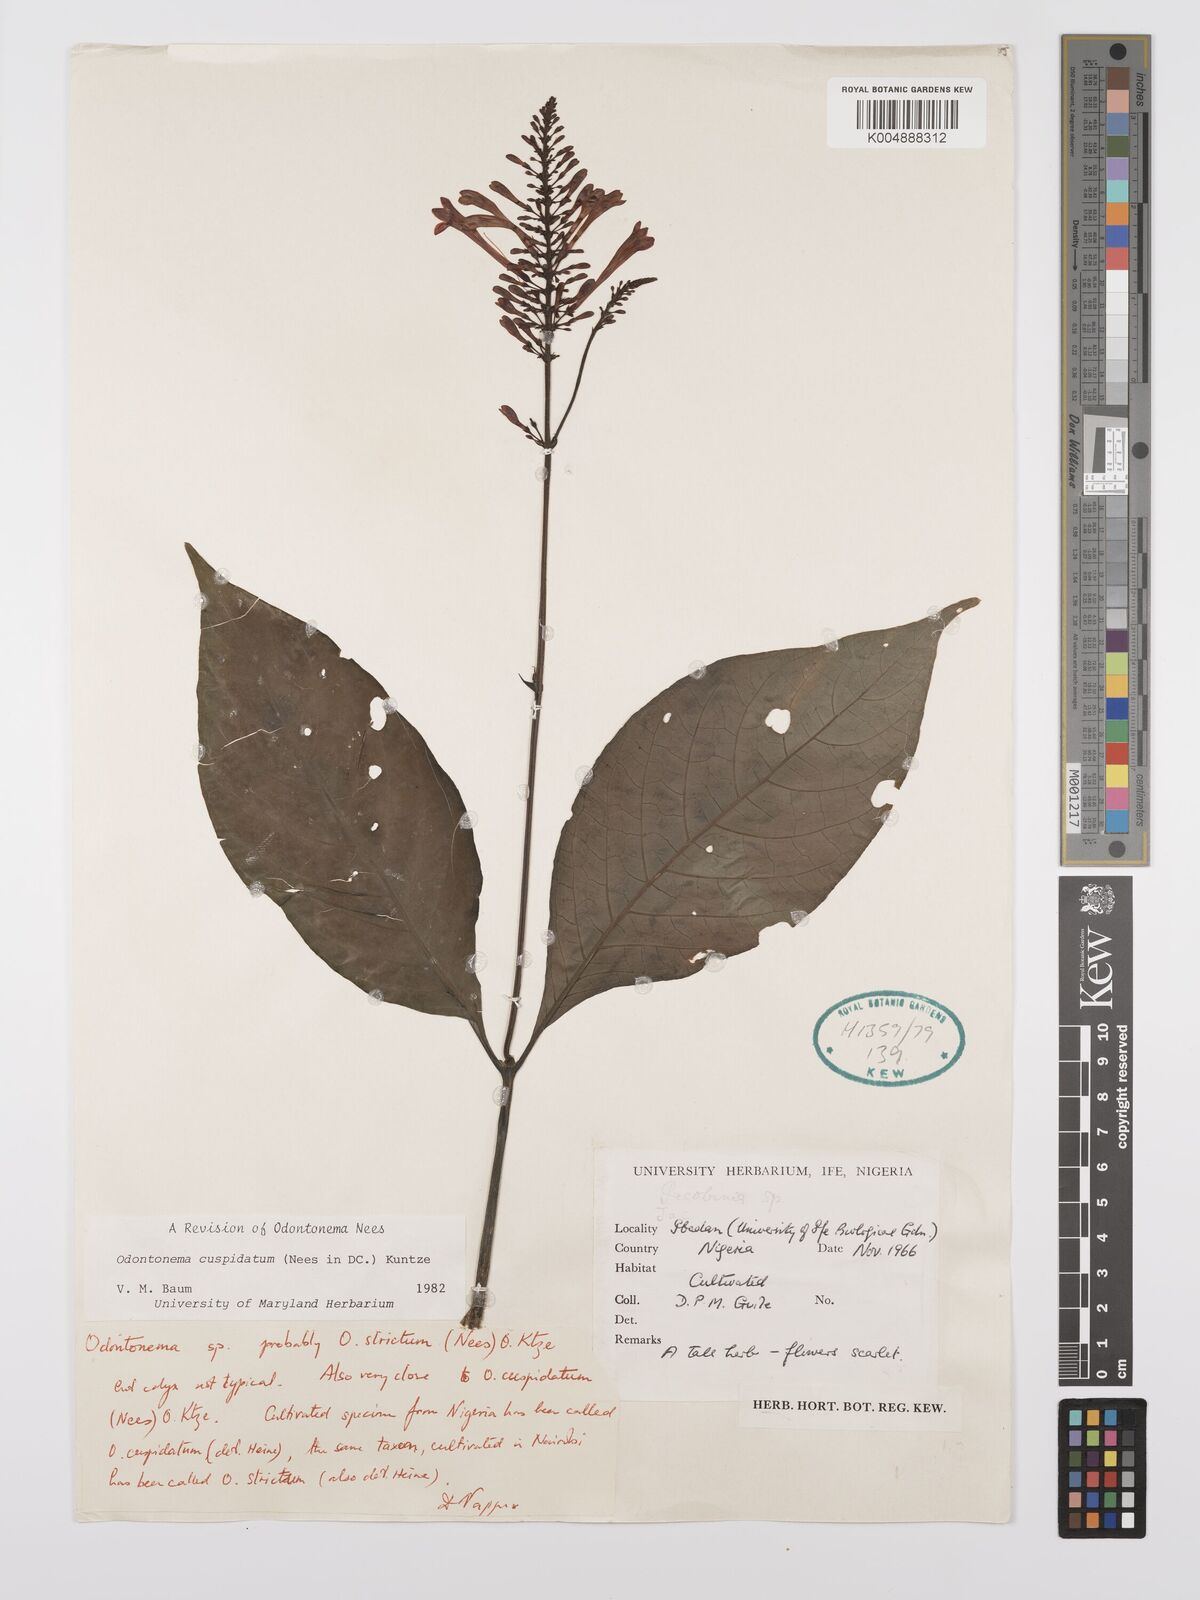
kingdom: Plantae
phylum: Tracheophyta
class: Magnoliopsida
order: Lamiales
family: Acanthaceae
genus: Odontonema
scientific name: Odontonema cuspidatum
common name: Mottled toothedthread
